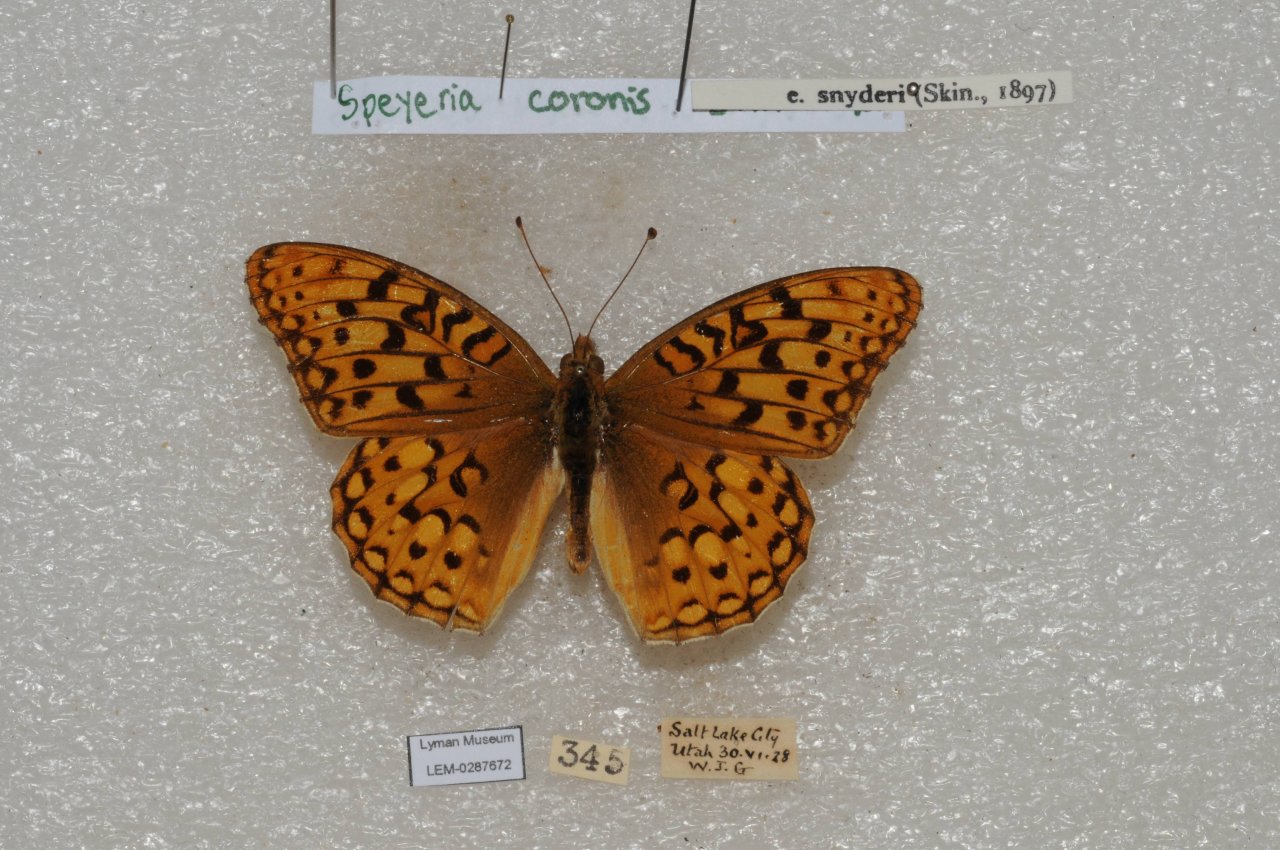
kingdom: Animalia
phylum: Arthropoda
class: Insecta
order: Lepidoptera
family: Nymphalidae
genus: Speyeria
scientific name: Speyeria coronis
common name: Coronis Fritillary
